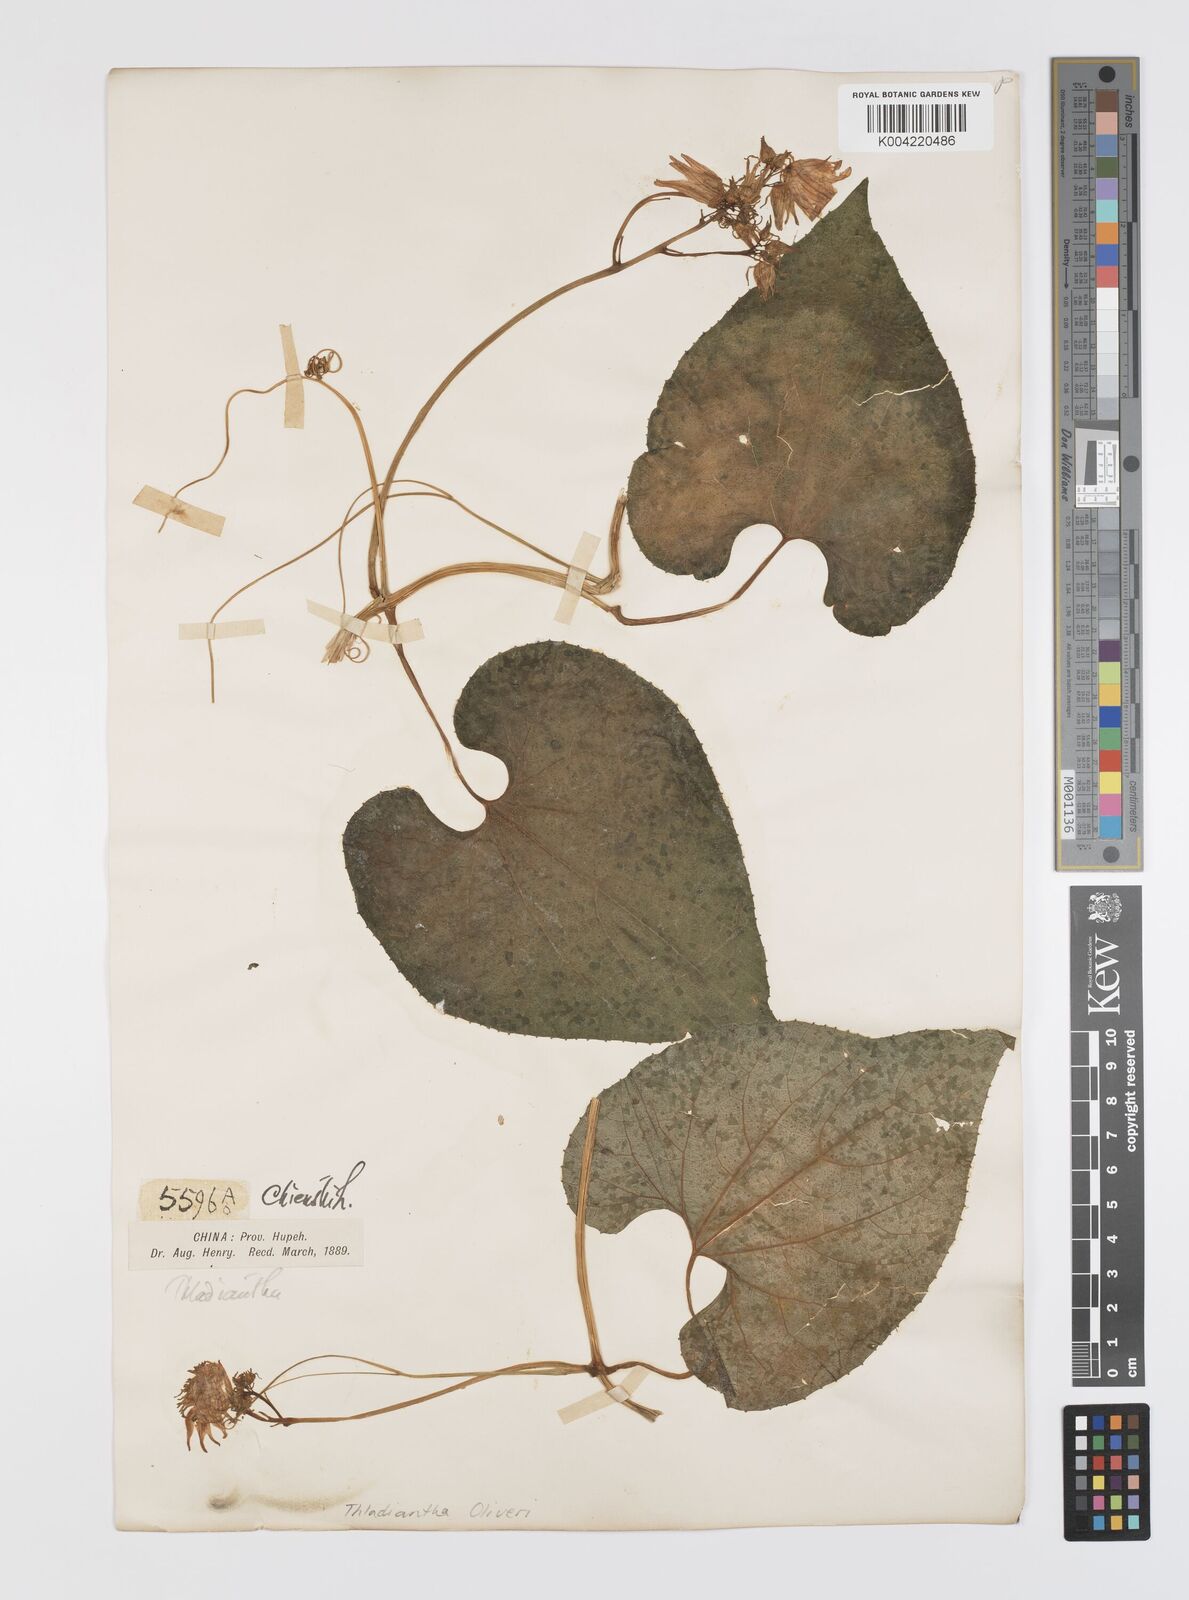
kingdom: Plantae
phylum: Tracheophyta
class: Magnoliopsida
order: Cucurbitales
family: Cucurbitaceae
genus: Thladiantha
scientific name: Thladiantha oliveri
